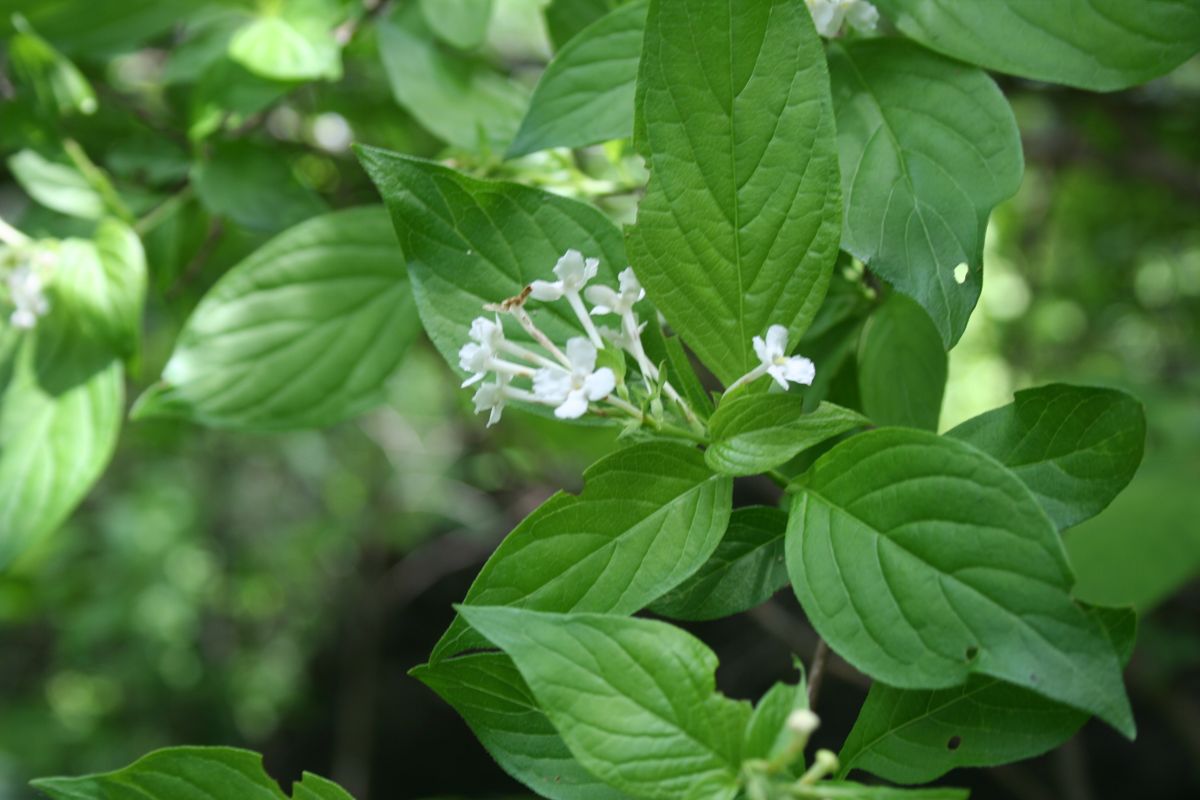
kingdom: Plantae
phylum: Tracheophyta
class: Magnoliopsida
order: Gentianales
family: Rubiaceae
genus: Arachnothryx
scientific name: Arachnothryx thiemei
